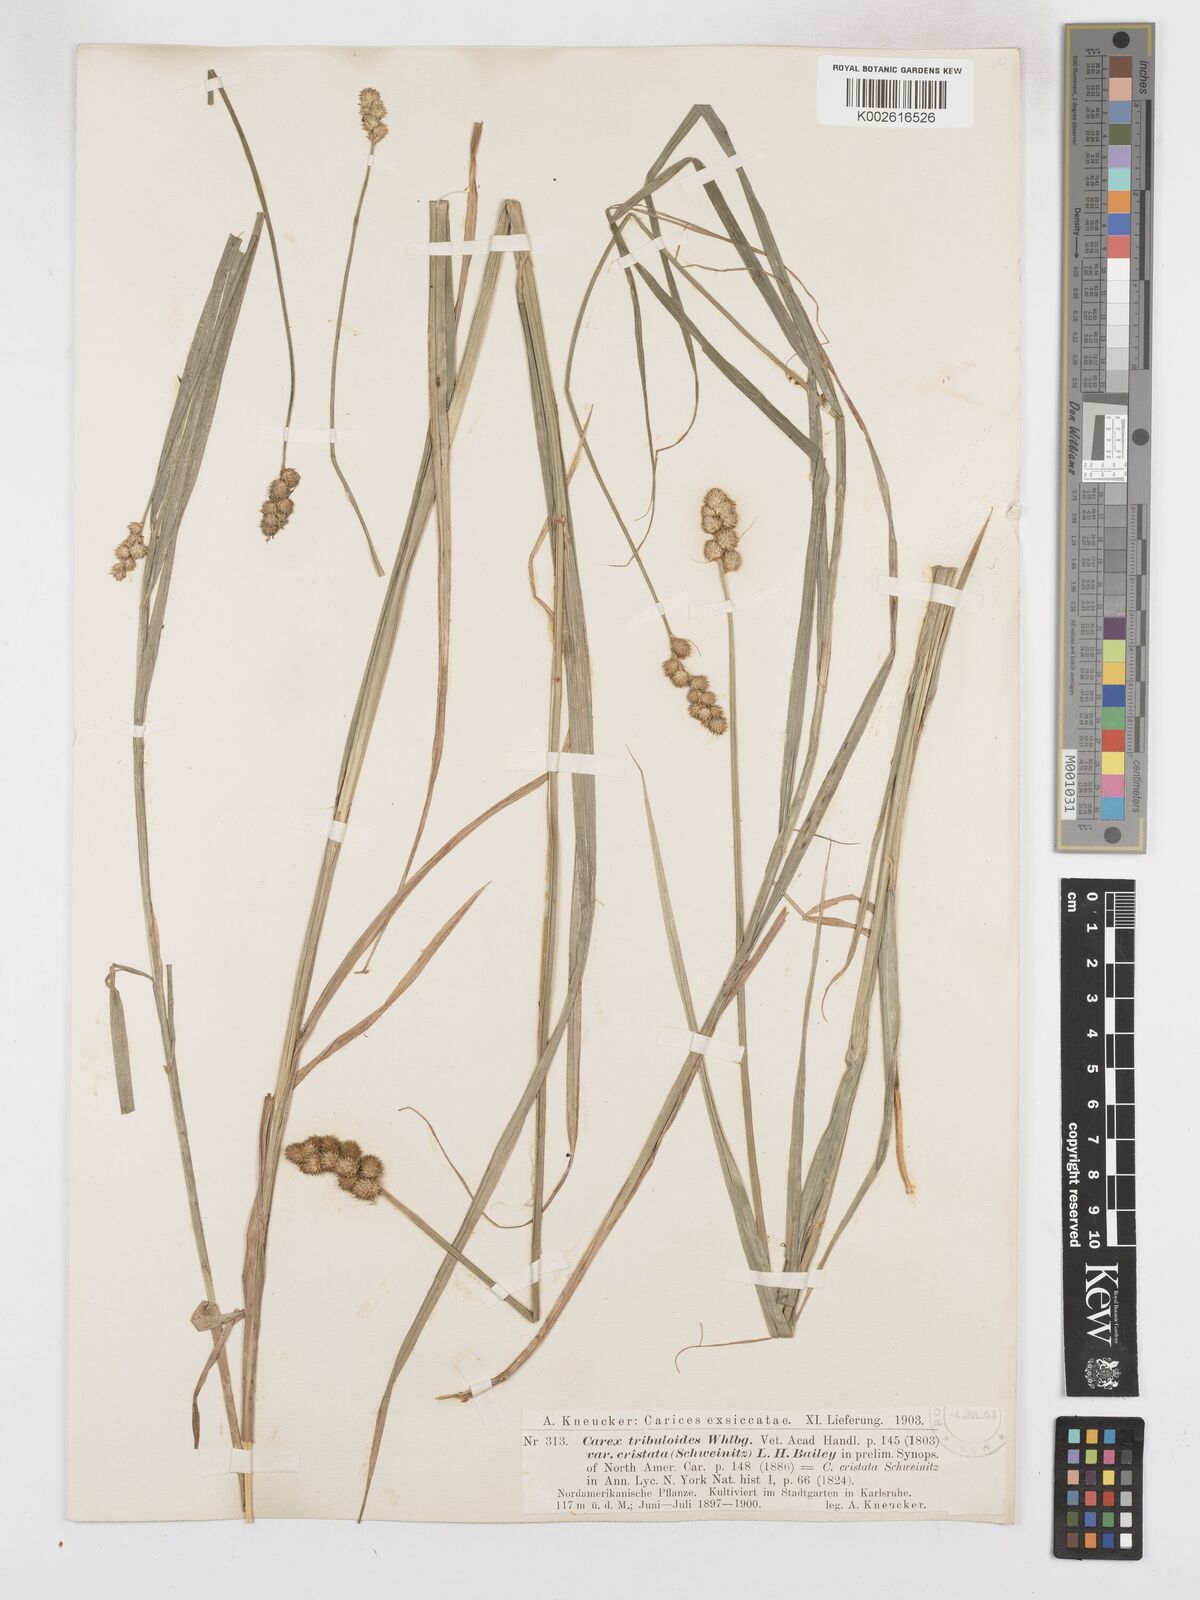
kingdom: Plantae
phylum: Tracheophyta
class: Liliopsida
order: Poales
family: Cyperaceae
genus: Carex
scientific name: Carex cristatella
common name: Crested oval sedge
